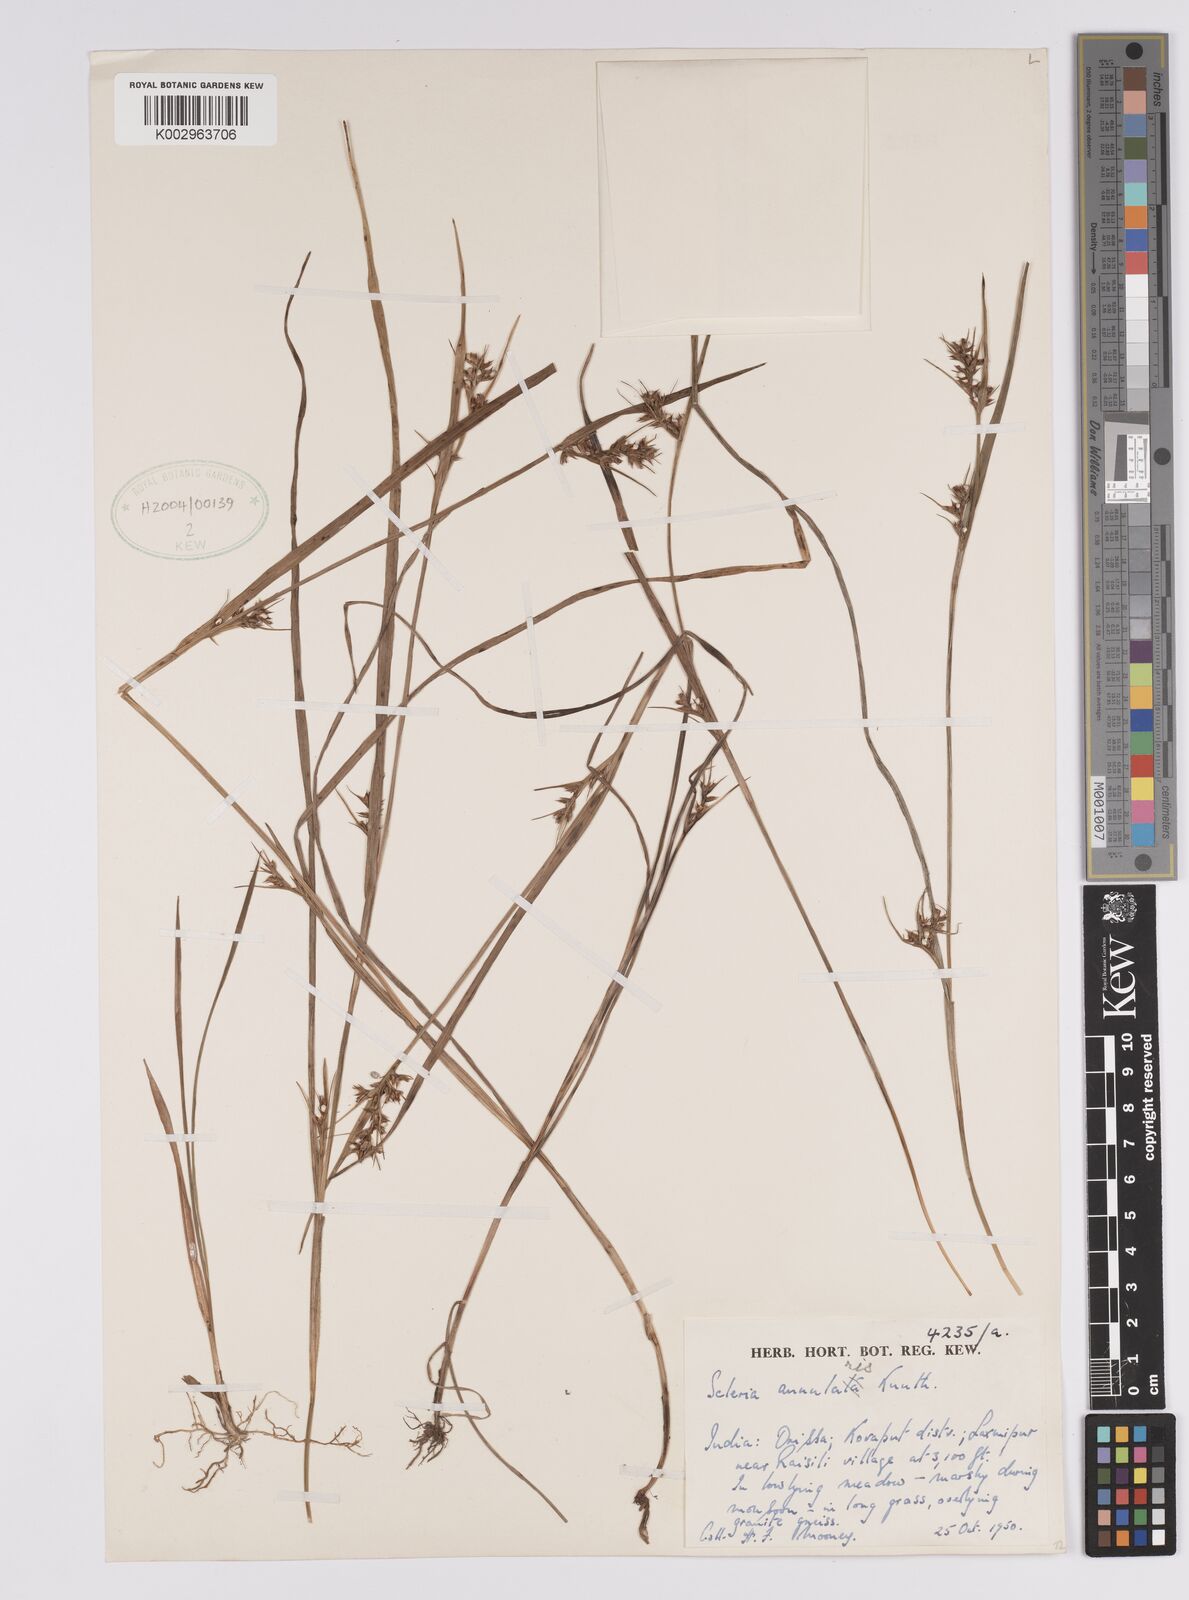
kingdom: Plantae
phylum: Tracheophyta
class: Liliopsida
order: Poales
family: Cyperaceae
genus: Scleria
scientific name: Scleria annularis
